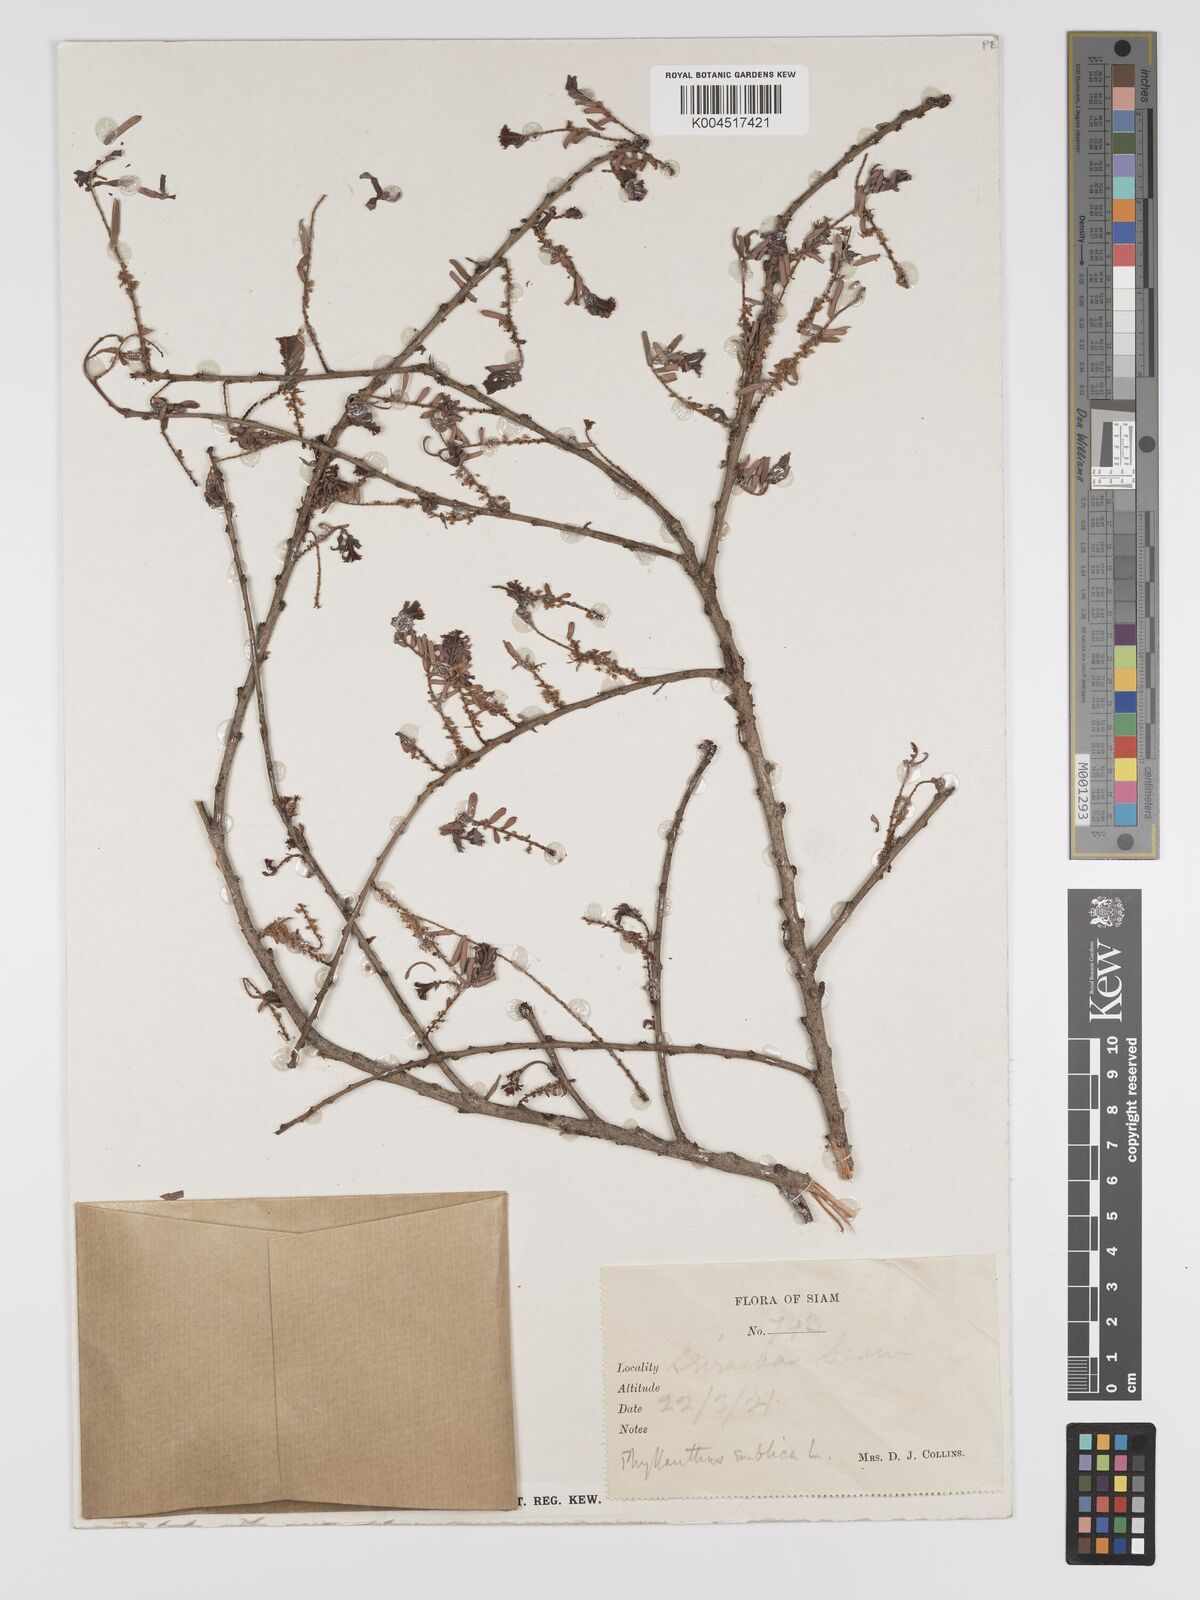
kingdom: Plantae
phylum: Tracheophyta
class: Magnoliopsida
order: Malpighiales
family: Phyllanthaceae
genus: Phyllanthus
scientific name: Phyllanthus emblica
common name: Indian gooseberry
